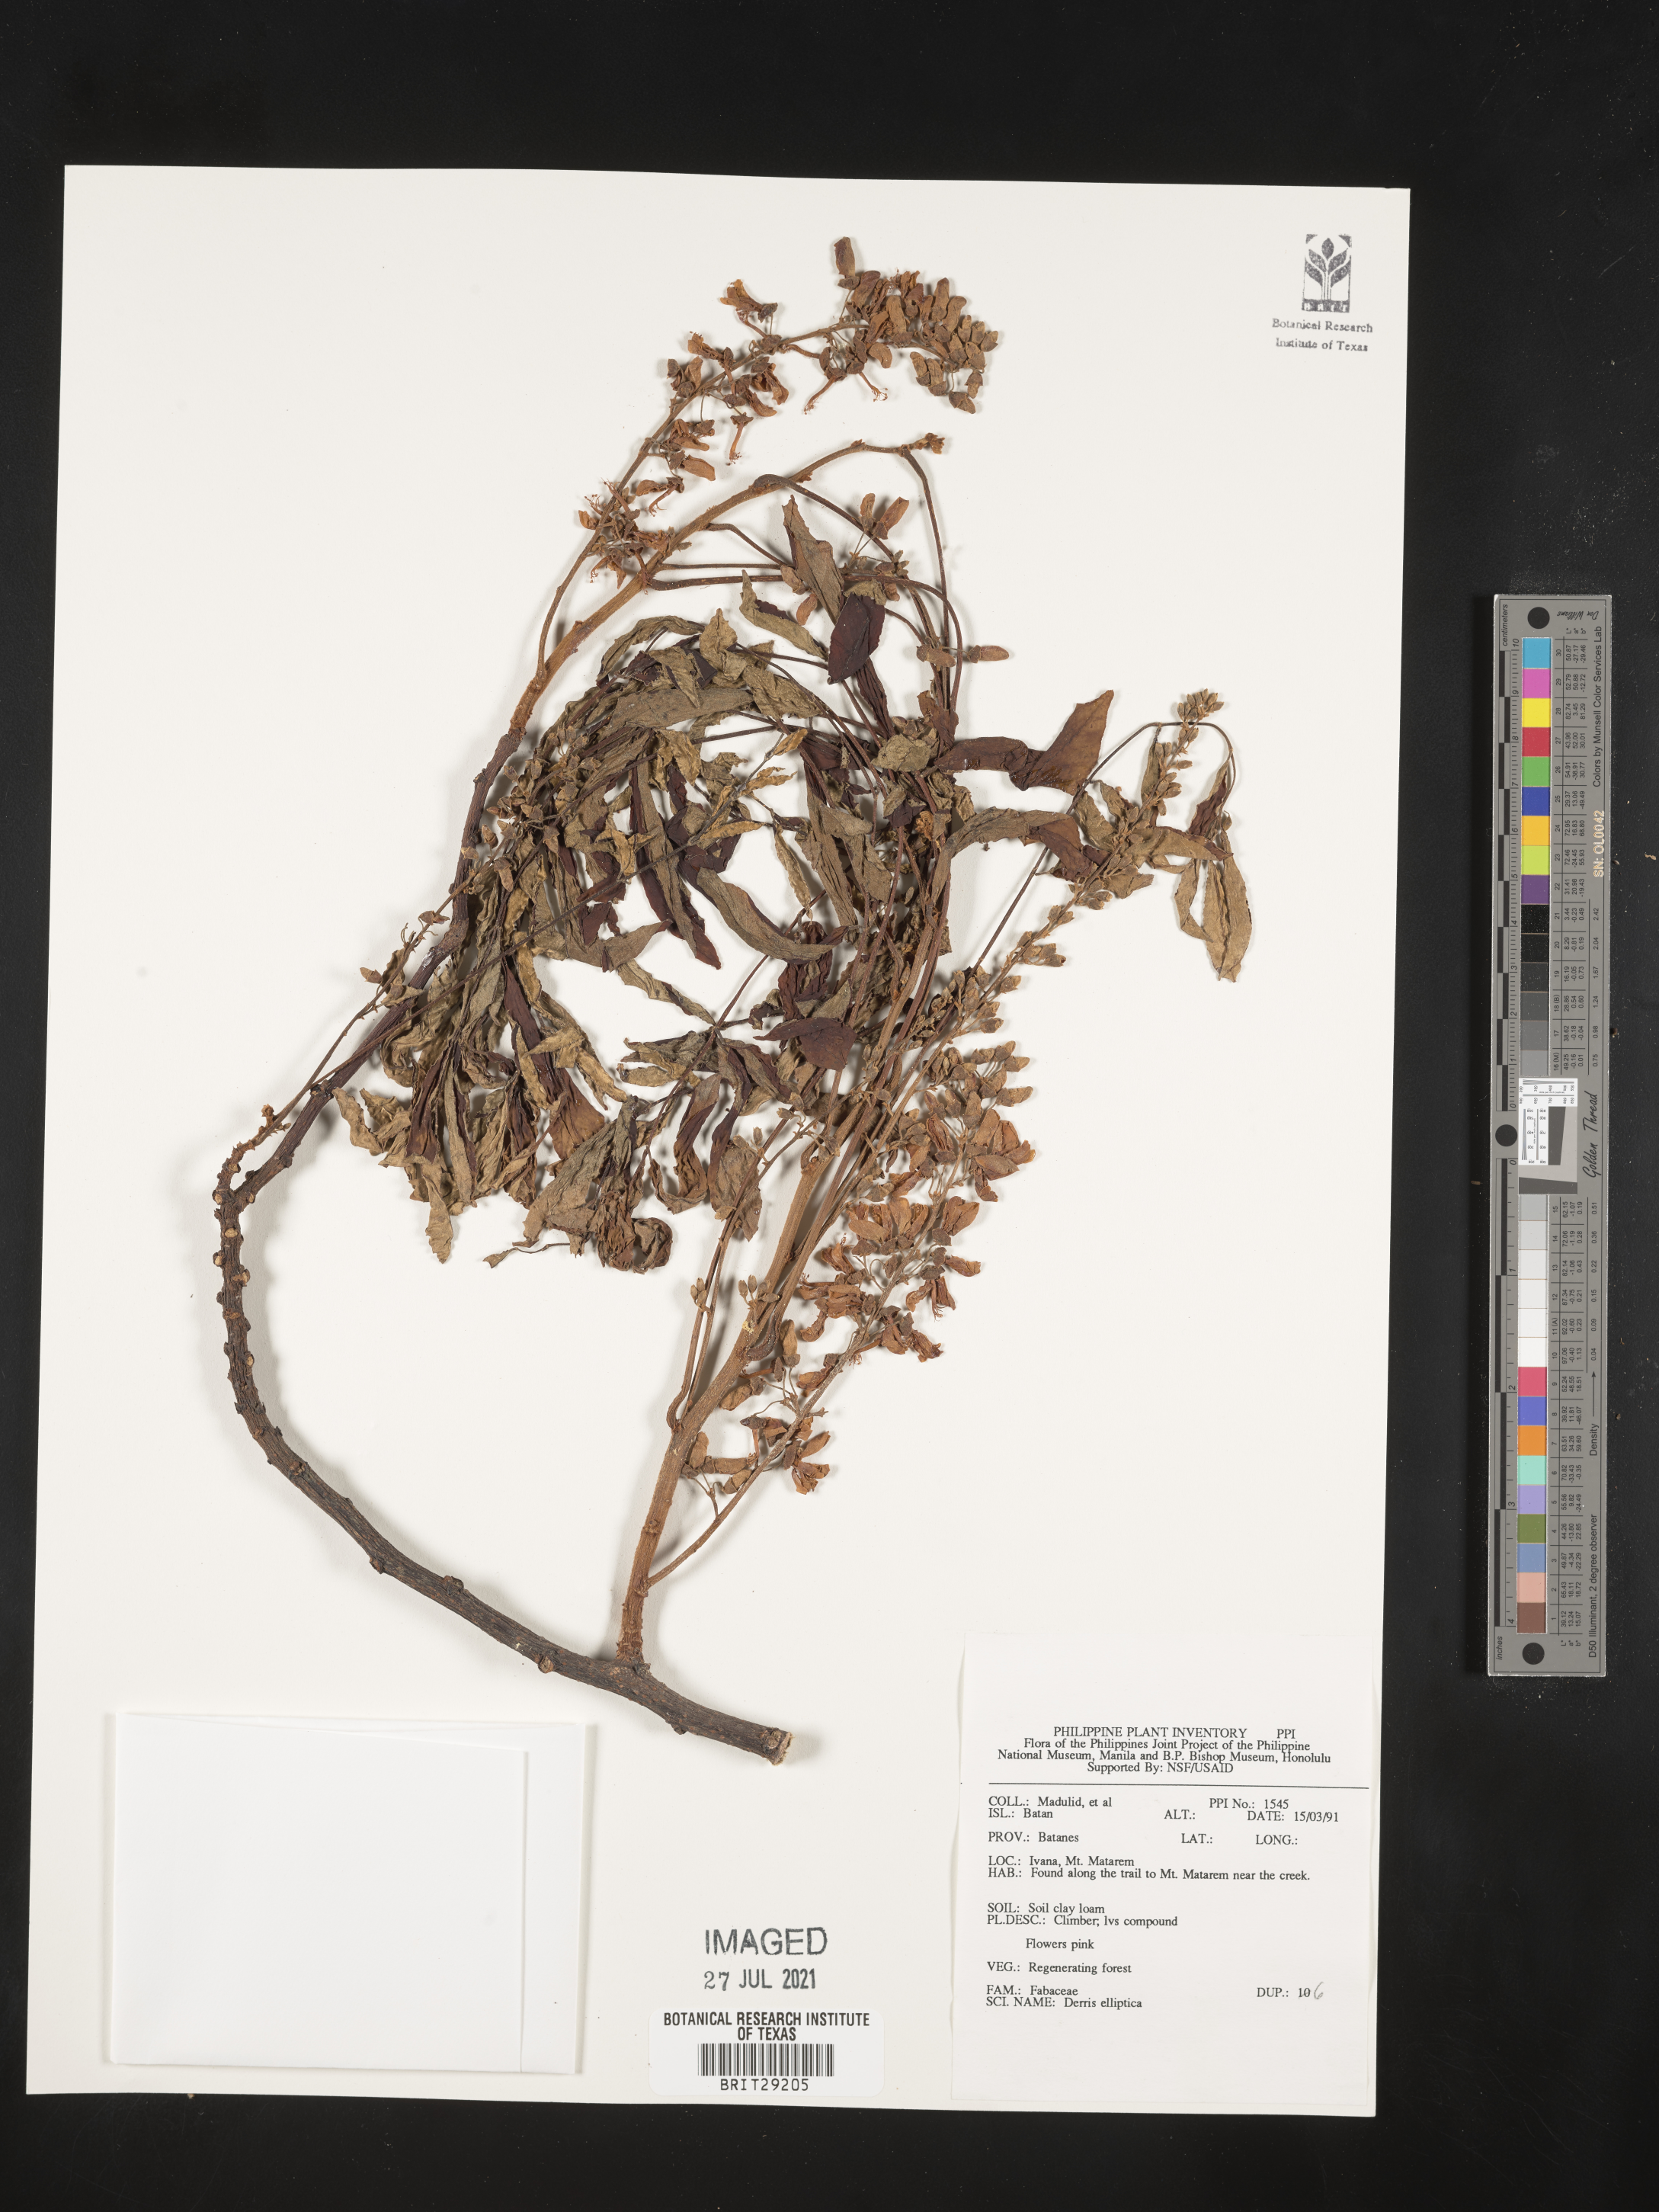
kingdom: Plantae
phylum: Tracheophyta
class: Magnoliopsida
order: Fabales
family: Fabaceae
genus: Derris
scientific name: Derris elliptica
